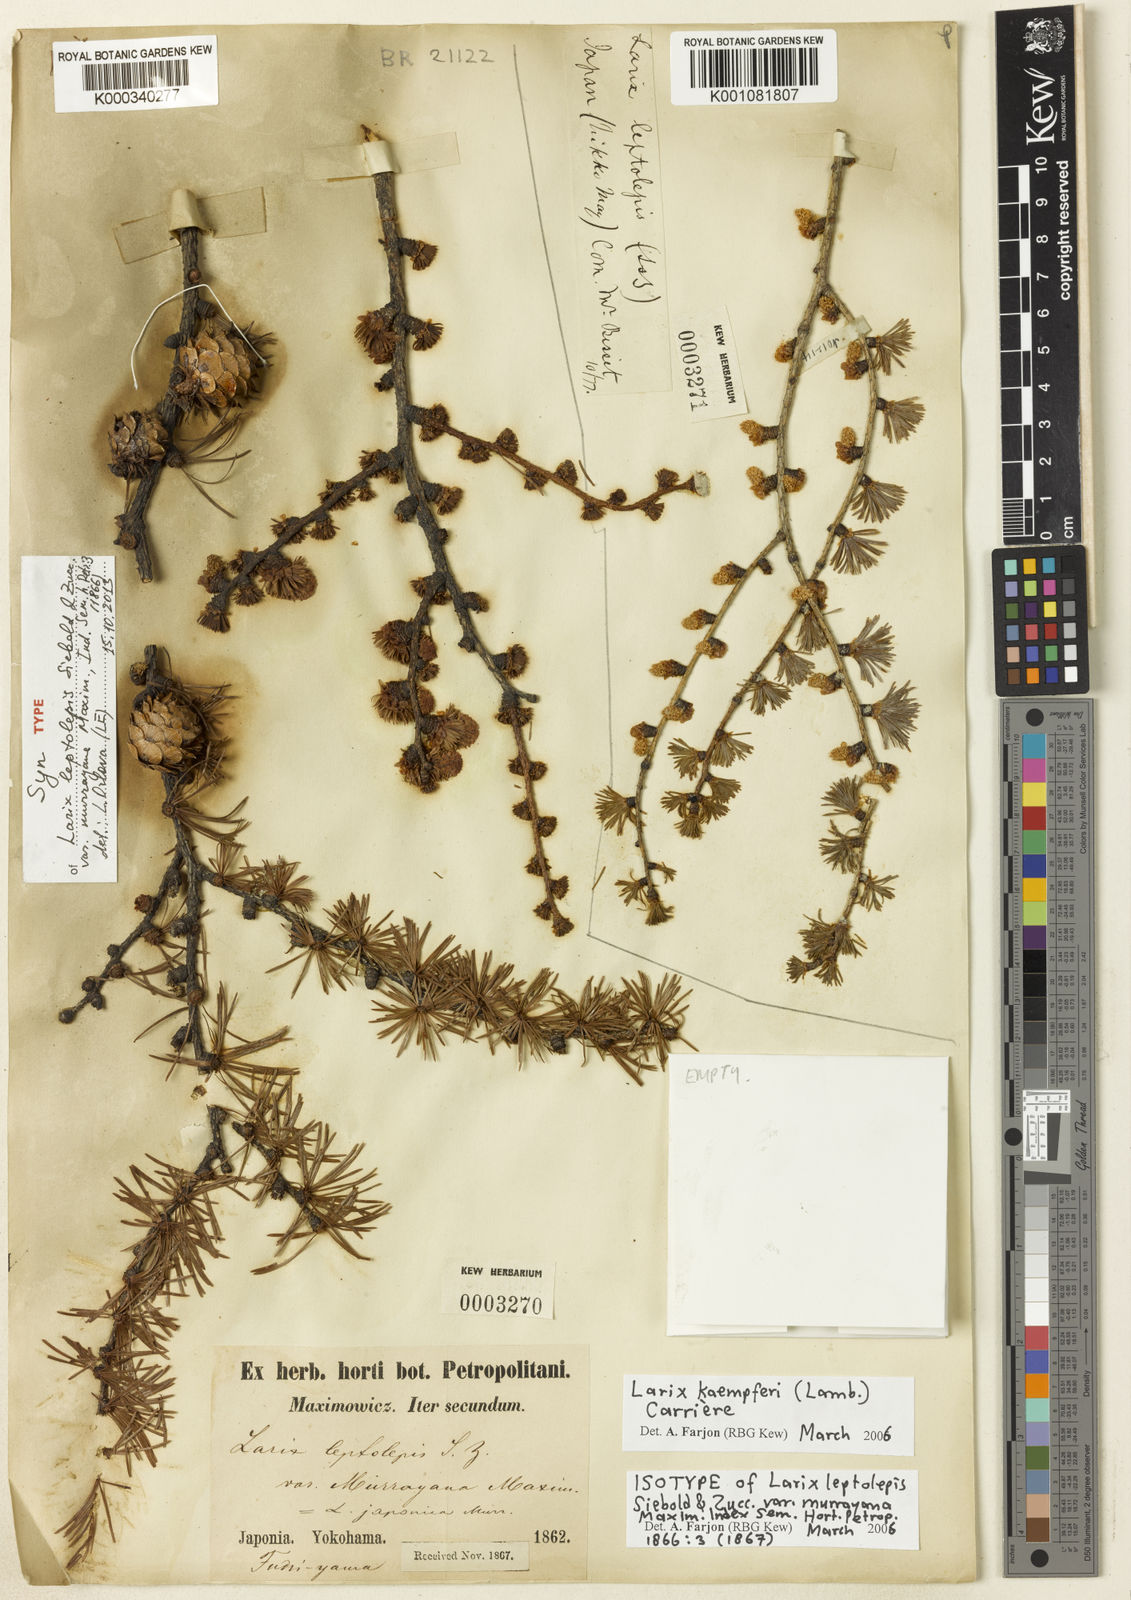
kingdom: Plantae
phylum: Tracheophyta
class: Pinopsida
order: Pinales
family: Pinaceae
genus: Larix
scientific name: Larix
